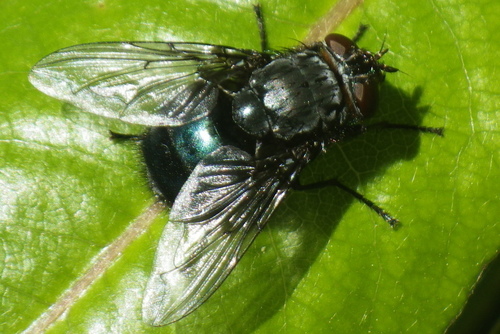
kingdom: Animalia
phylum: Arthropoda
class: Insecta
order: Diptera
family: Calliphoridae
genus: Calliphora
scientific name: Calliphora vomitoria
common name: Blue bottle fly
